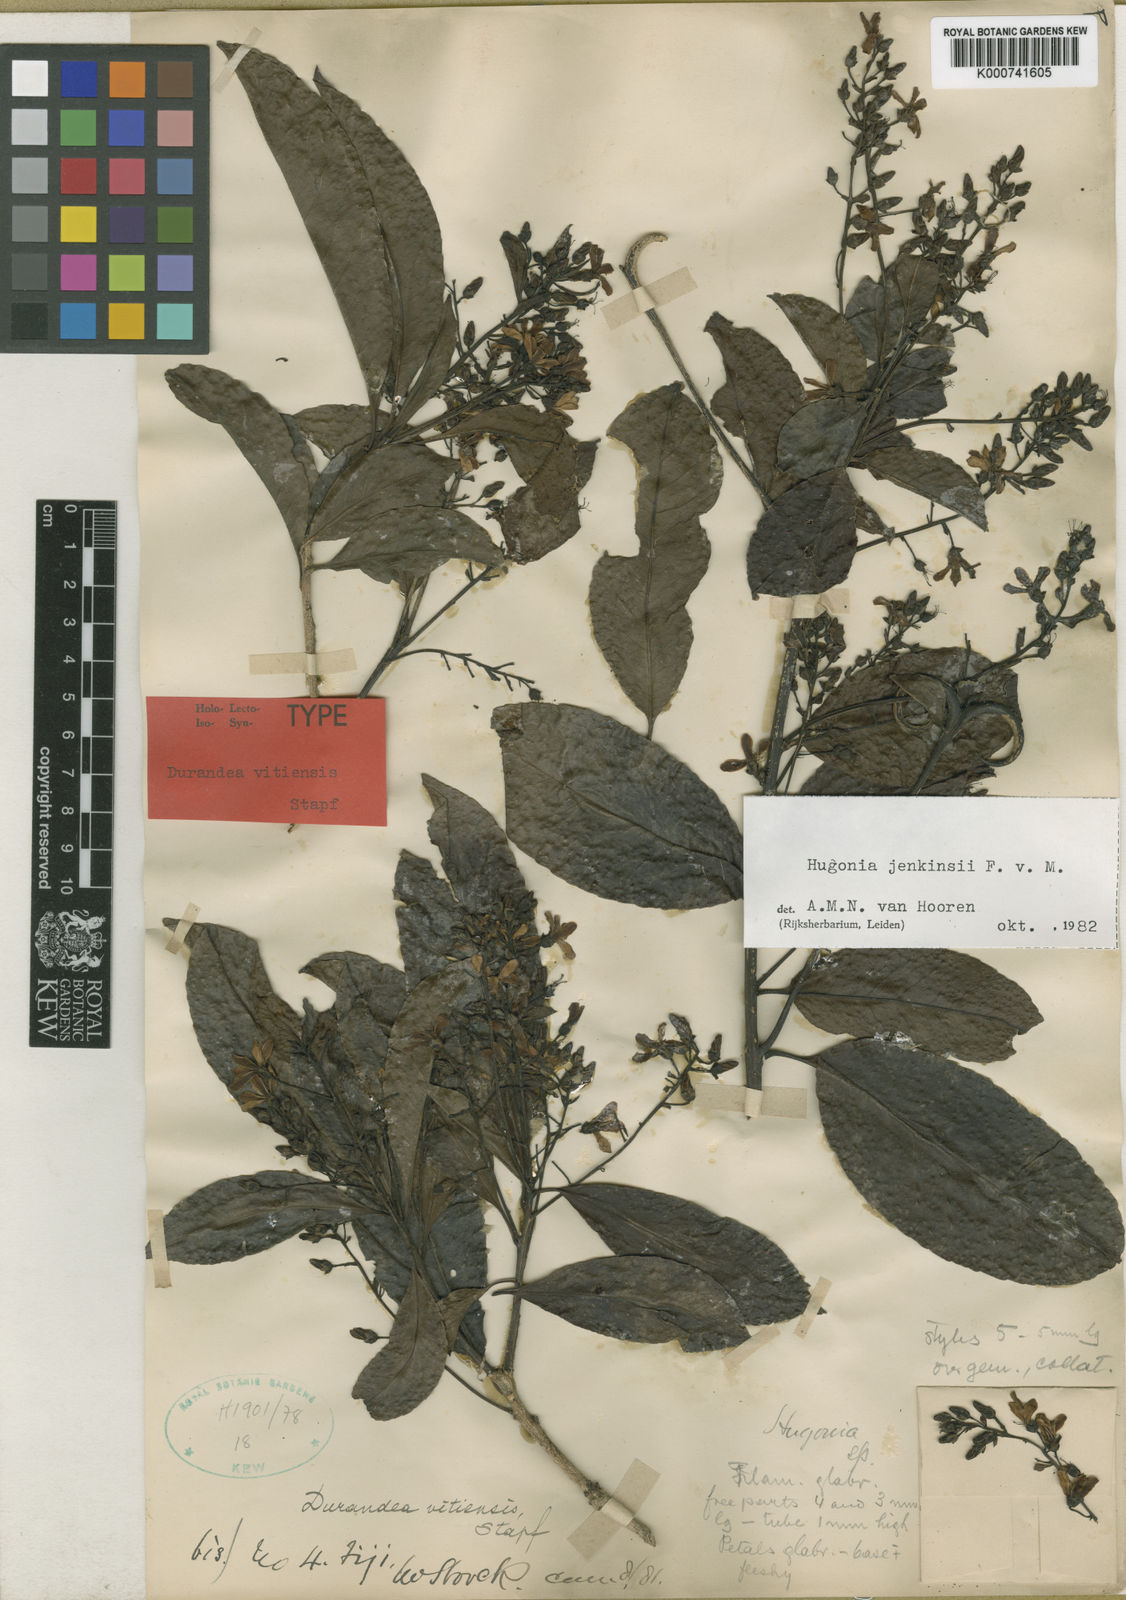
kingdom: Plantae
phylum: Tracheophyta
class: Magnoliopsida
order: Malpighiales
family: Linaceae
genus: Durandea
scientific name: Durandea vitiensis
